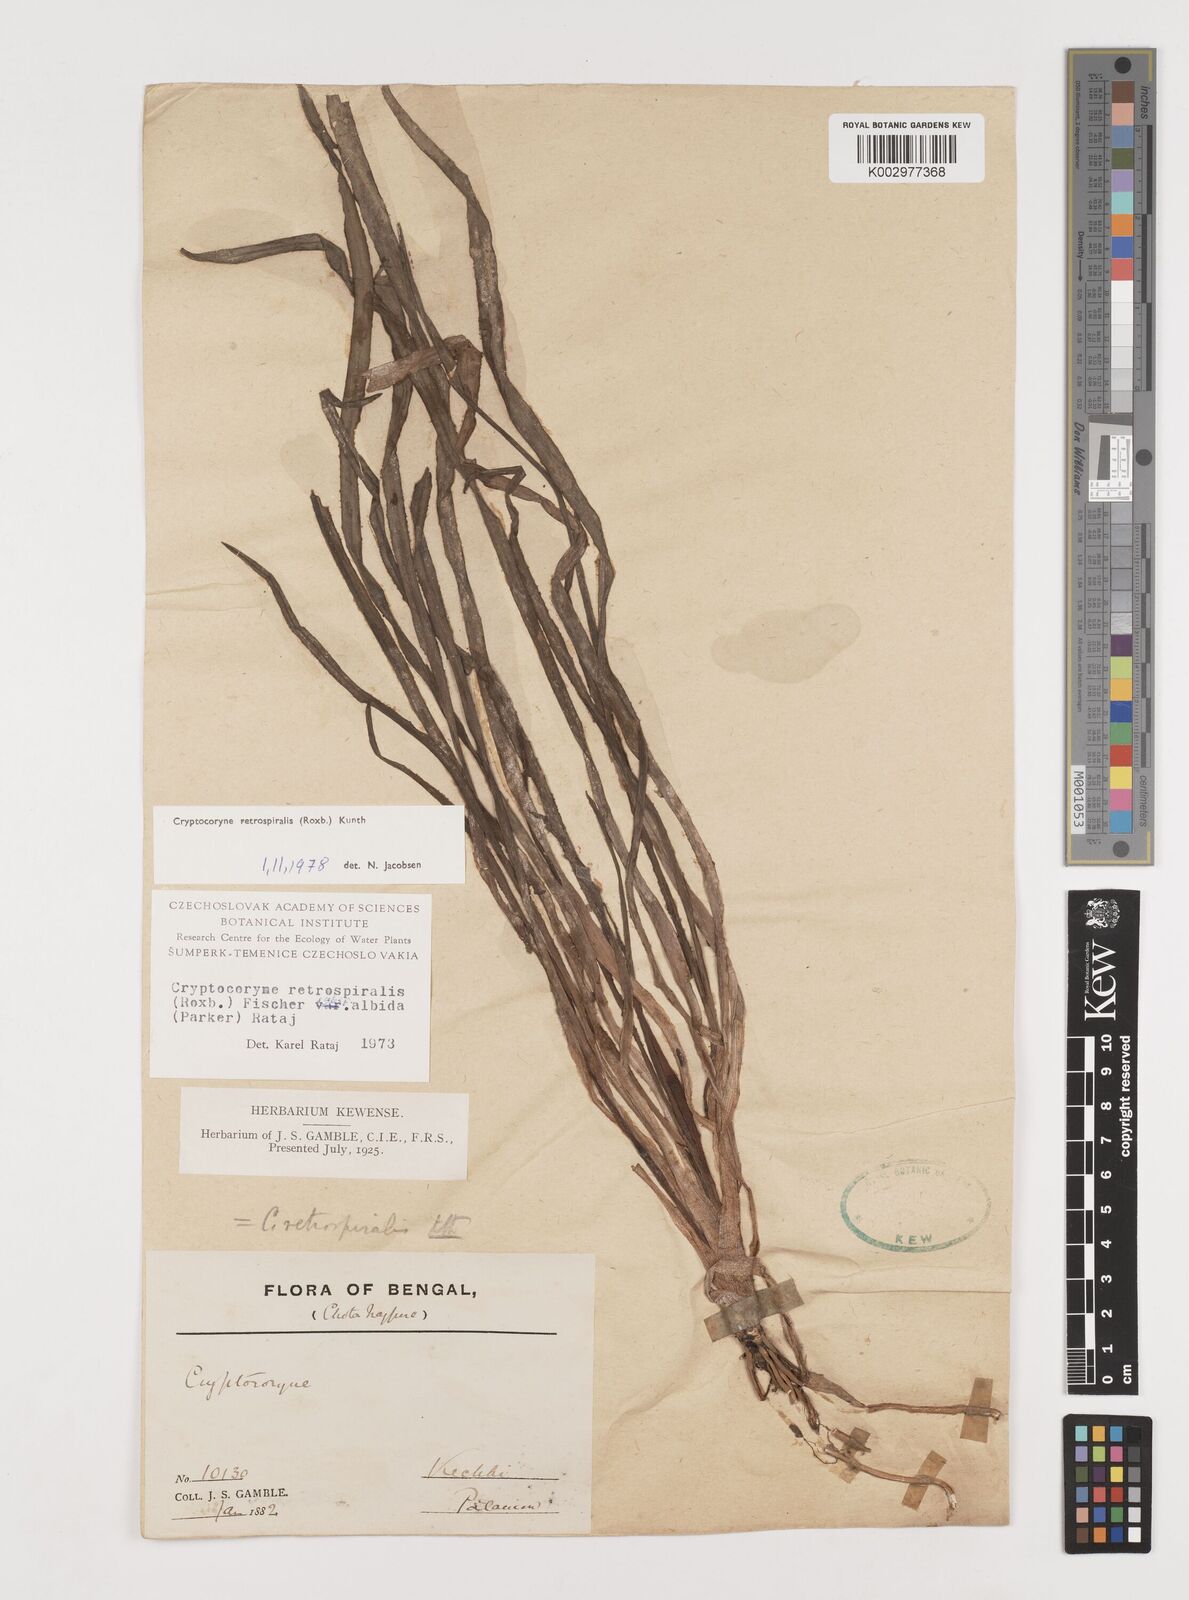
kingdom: Plantae
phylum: Tracheophyta
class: Liliopsida
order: Alismatales
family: Araceae
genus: Cryptocoryne
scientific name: Cryptocoryne retrospiralis
